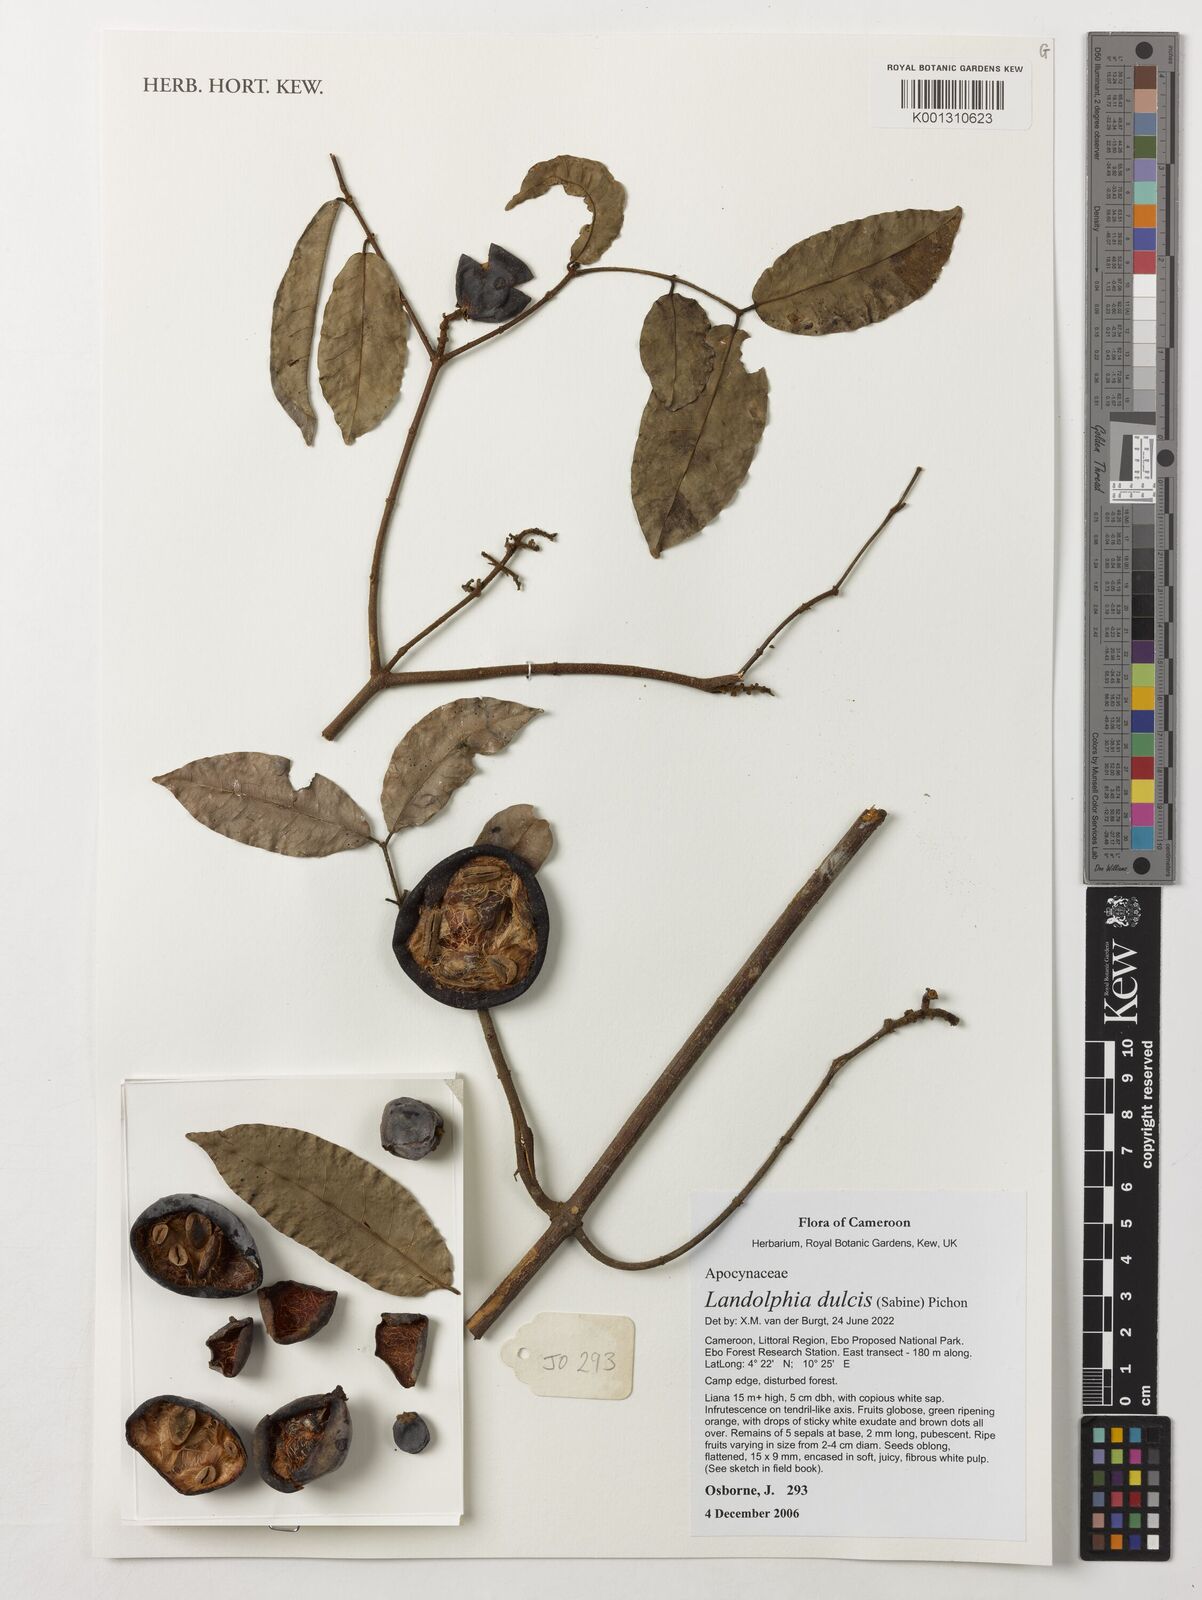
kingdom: Plantae
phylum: Tracheophyta
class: Magnoliopsida
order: Gentianales
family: Apocynaceae
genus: Landolphia
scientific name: Landolphia dulcis
